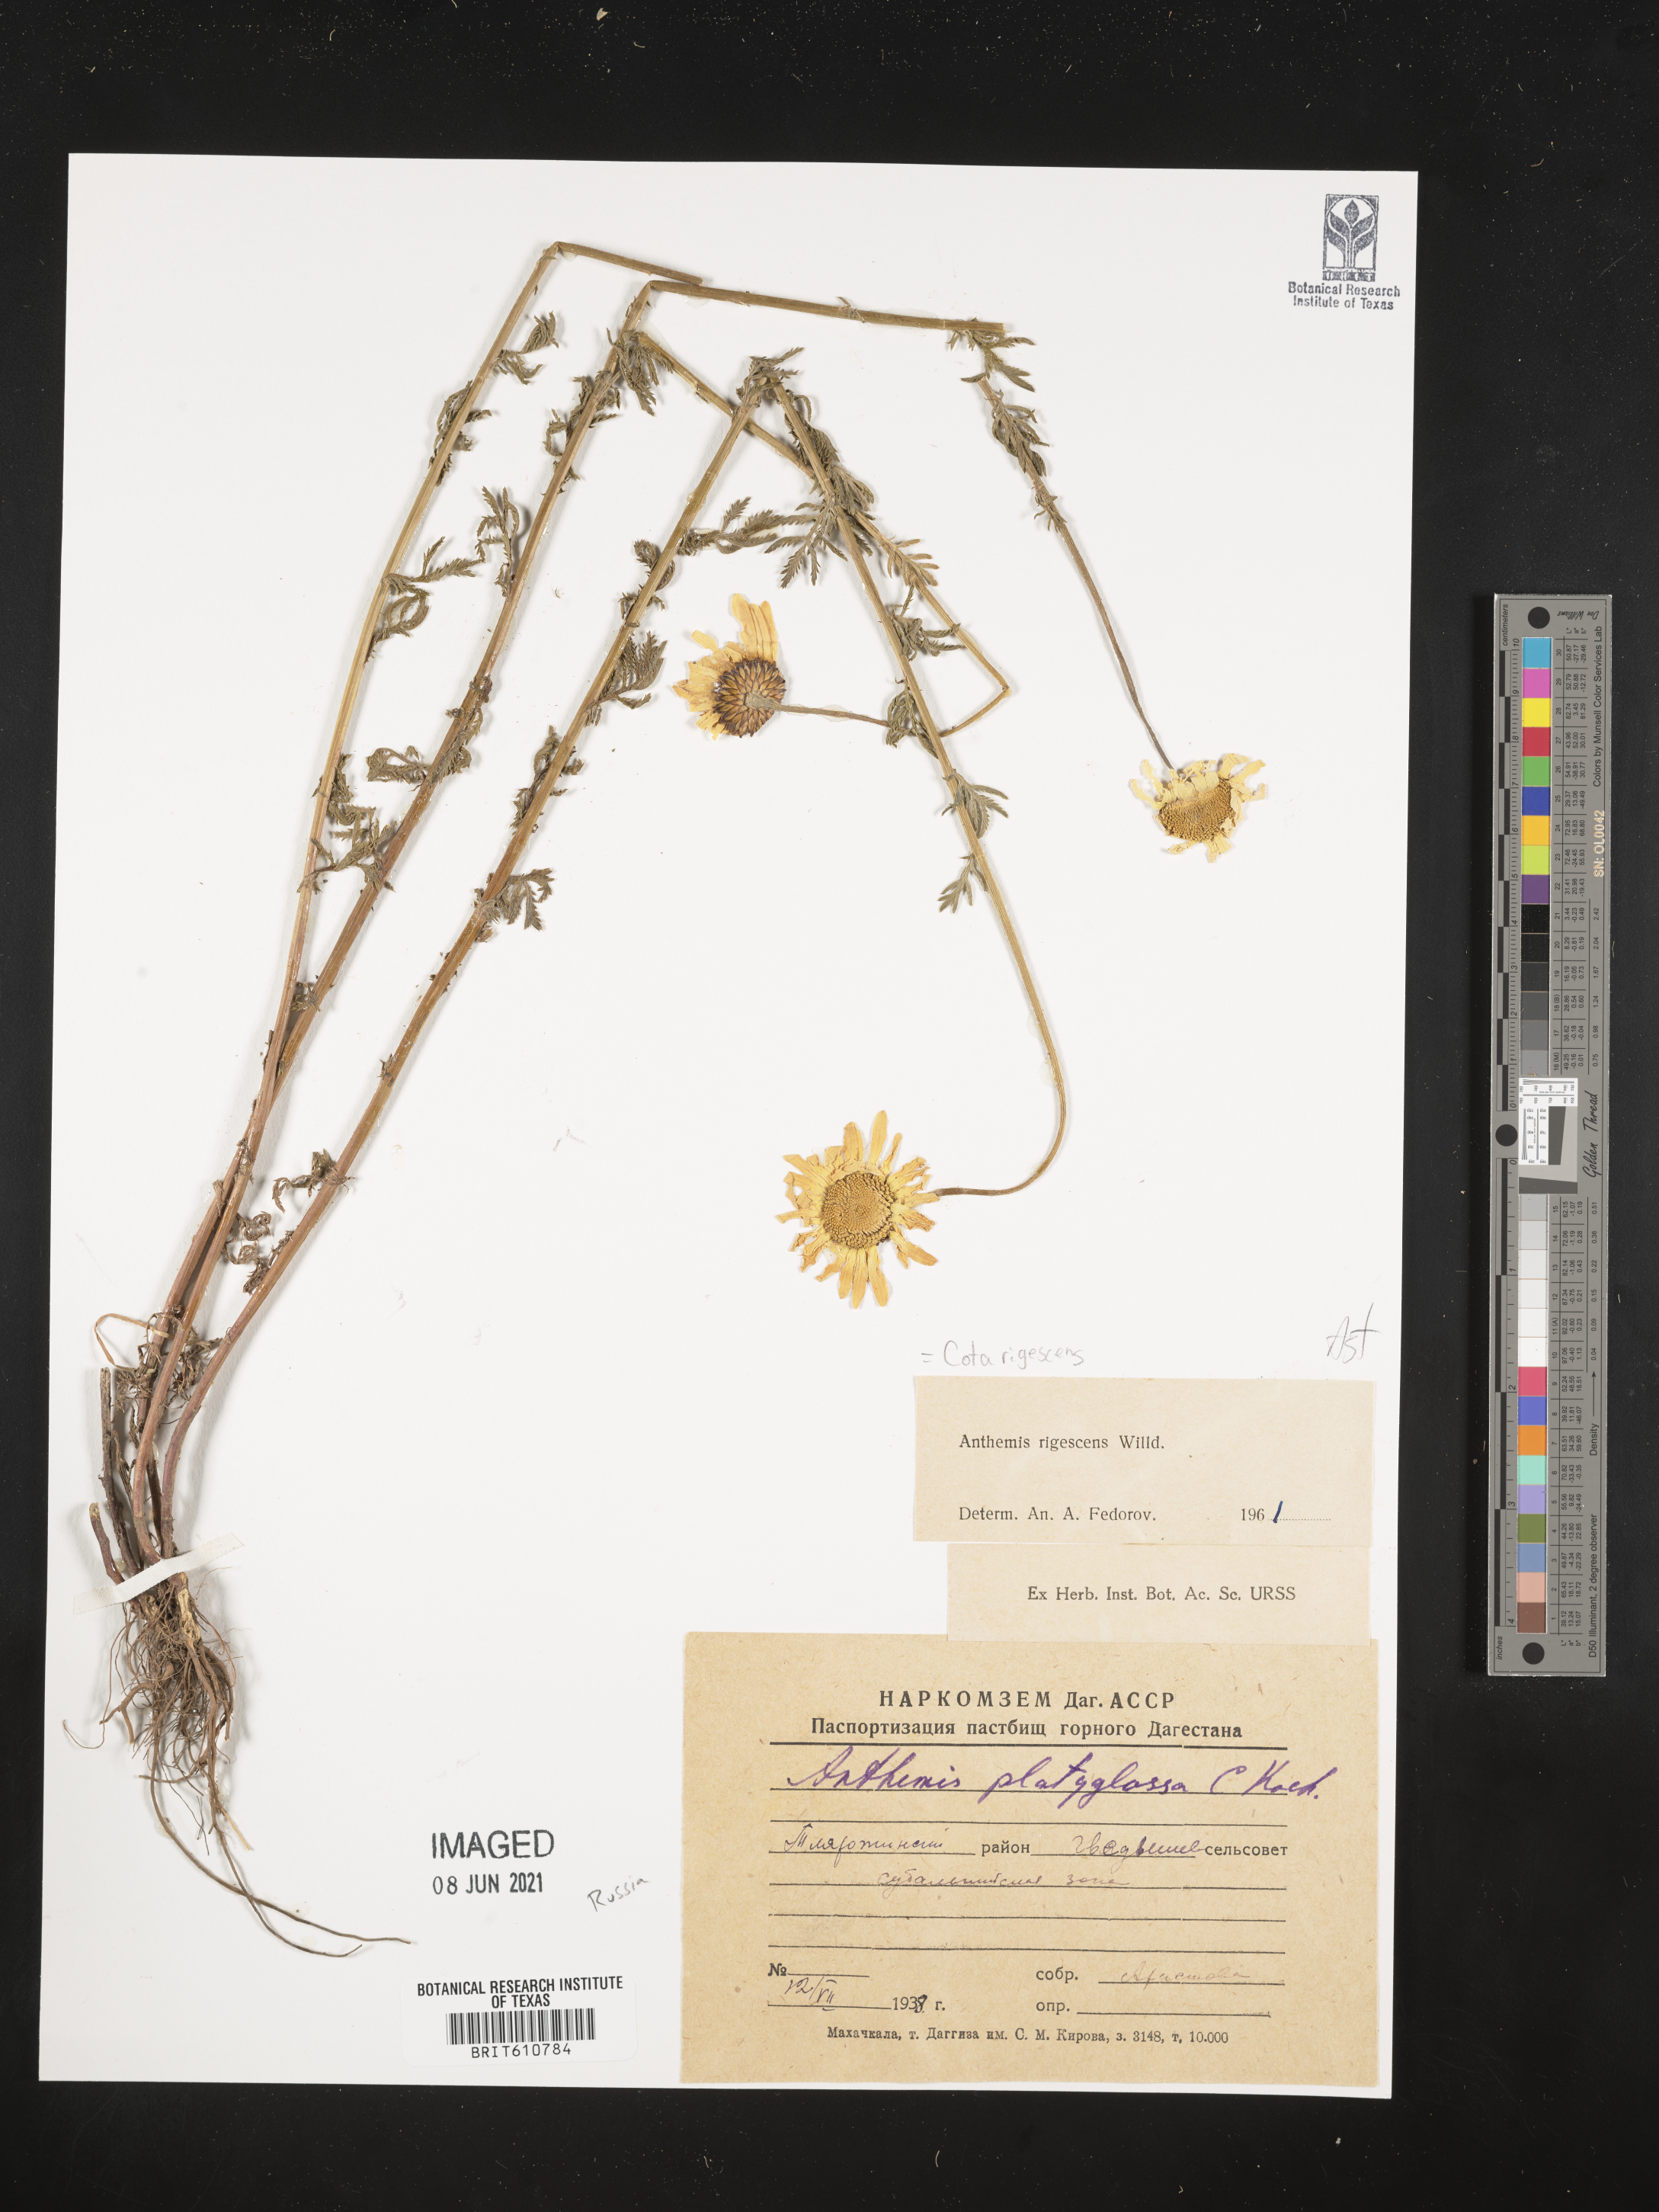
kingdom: Plantae
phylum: Tracheophyta
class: Magnoliopsida
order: Asterales
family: Asteraceae
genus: Cota
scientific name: Cota triumfetti
